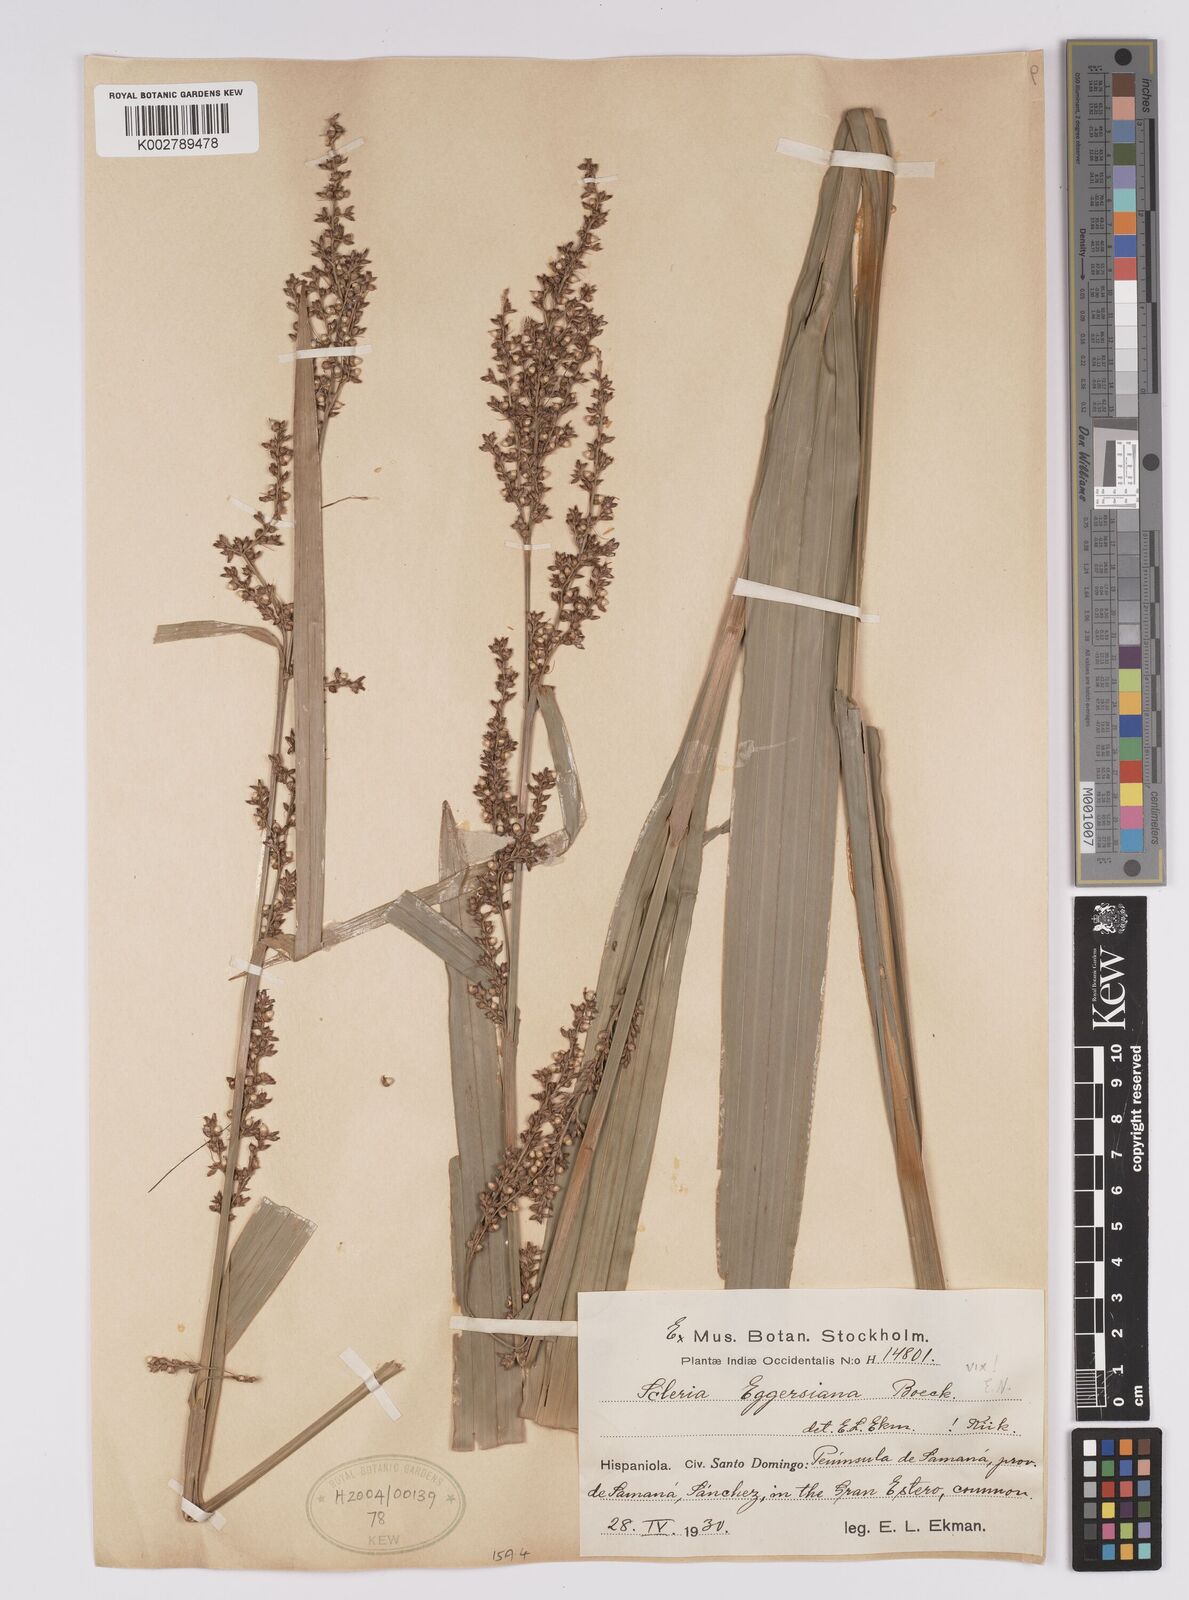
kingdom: Plantae
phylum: Tracheophyta
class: Liliopsida
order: Poales
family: Cyperaceae
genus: Scleria
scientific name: Scleria eggersiana
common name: Eggers' nutrush
